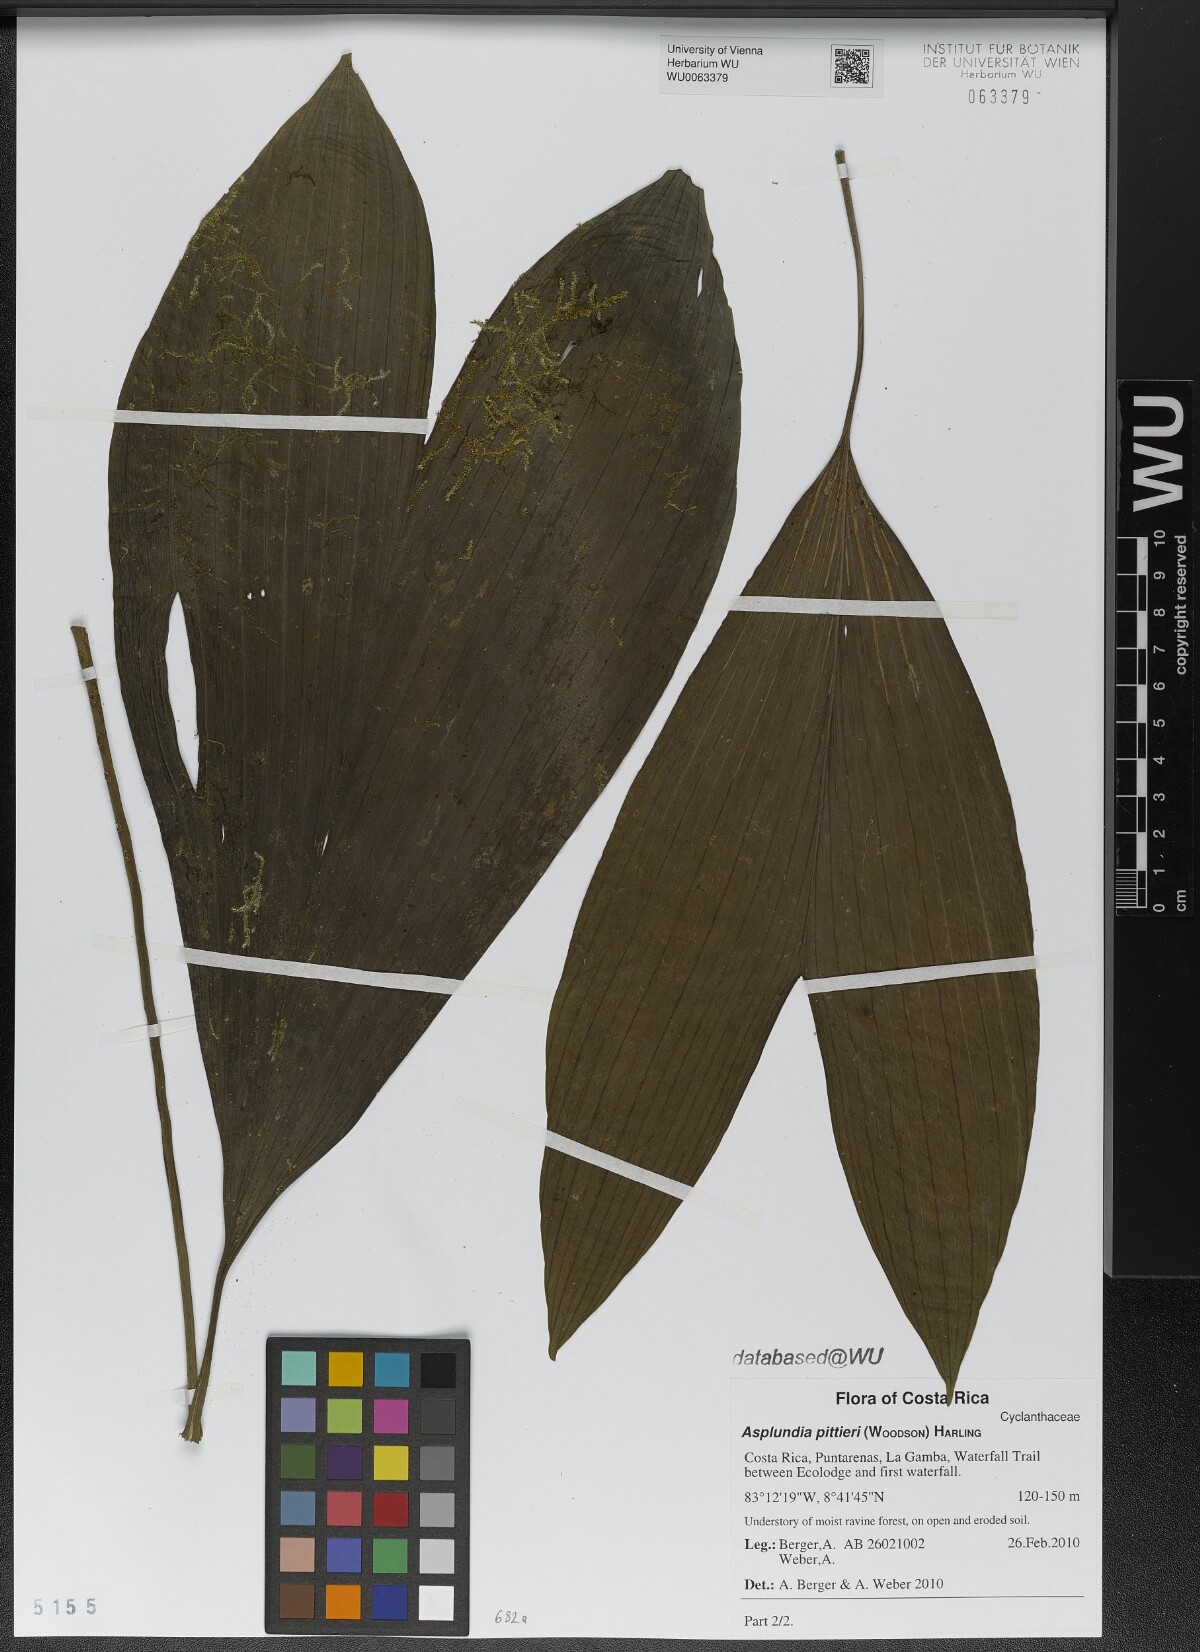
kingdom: Plantae
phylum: Tracheophyta
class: Liliopsida
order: Pandanales
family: Cyclanthaceae
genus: Asplundia
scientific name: Asplundia pittieri
